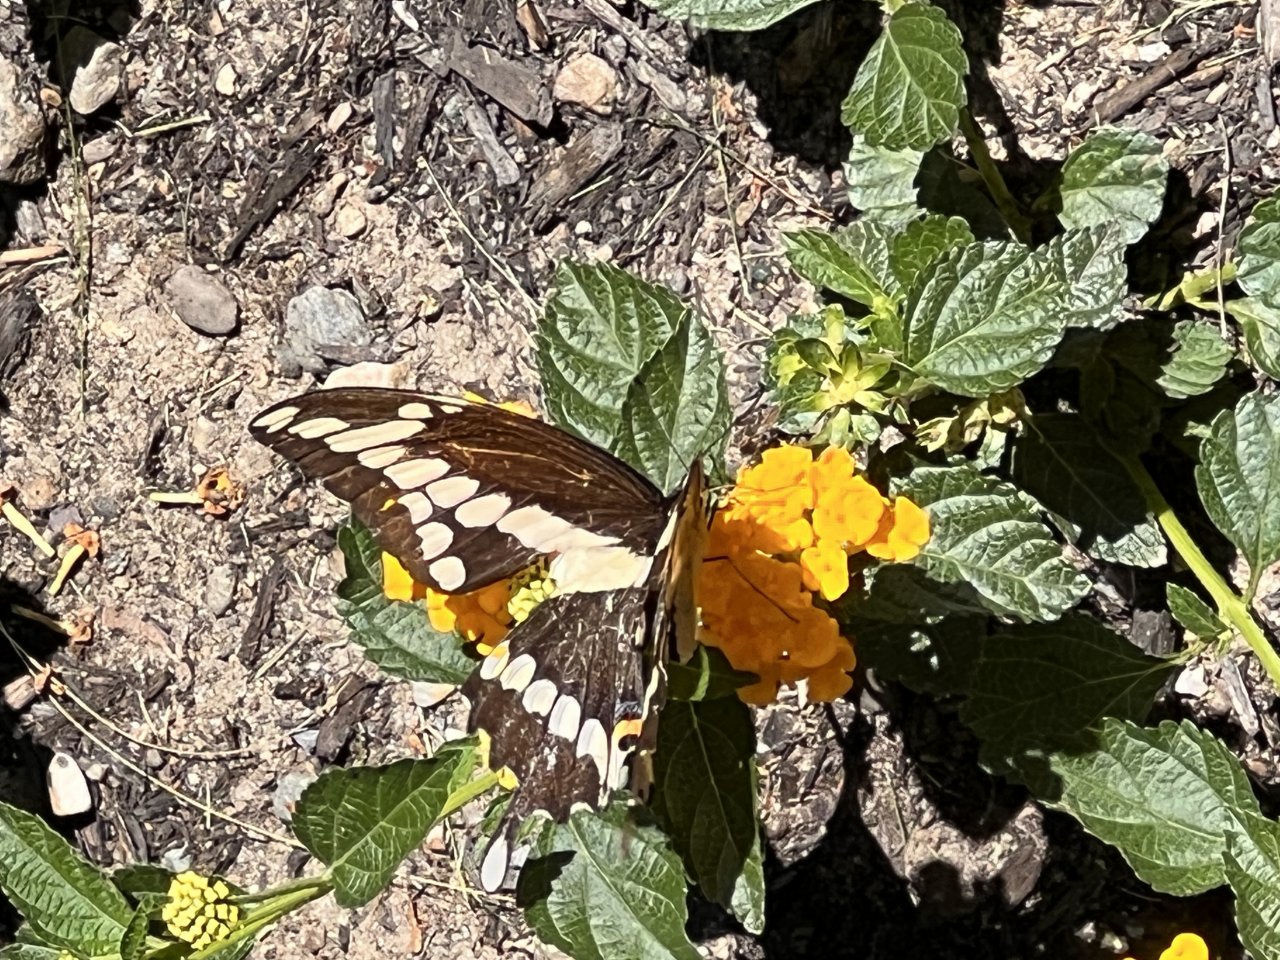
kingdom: Animalia
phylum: Arthropoda
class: Insecta
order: Lepidoptera
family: Papilionidae
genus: Papilio
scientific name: Papilio cresphontes
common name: Eastern Giant Swallowtail
